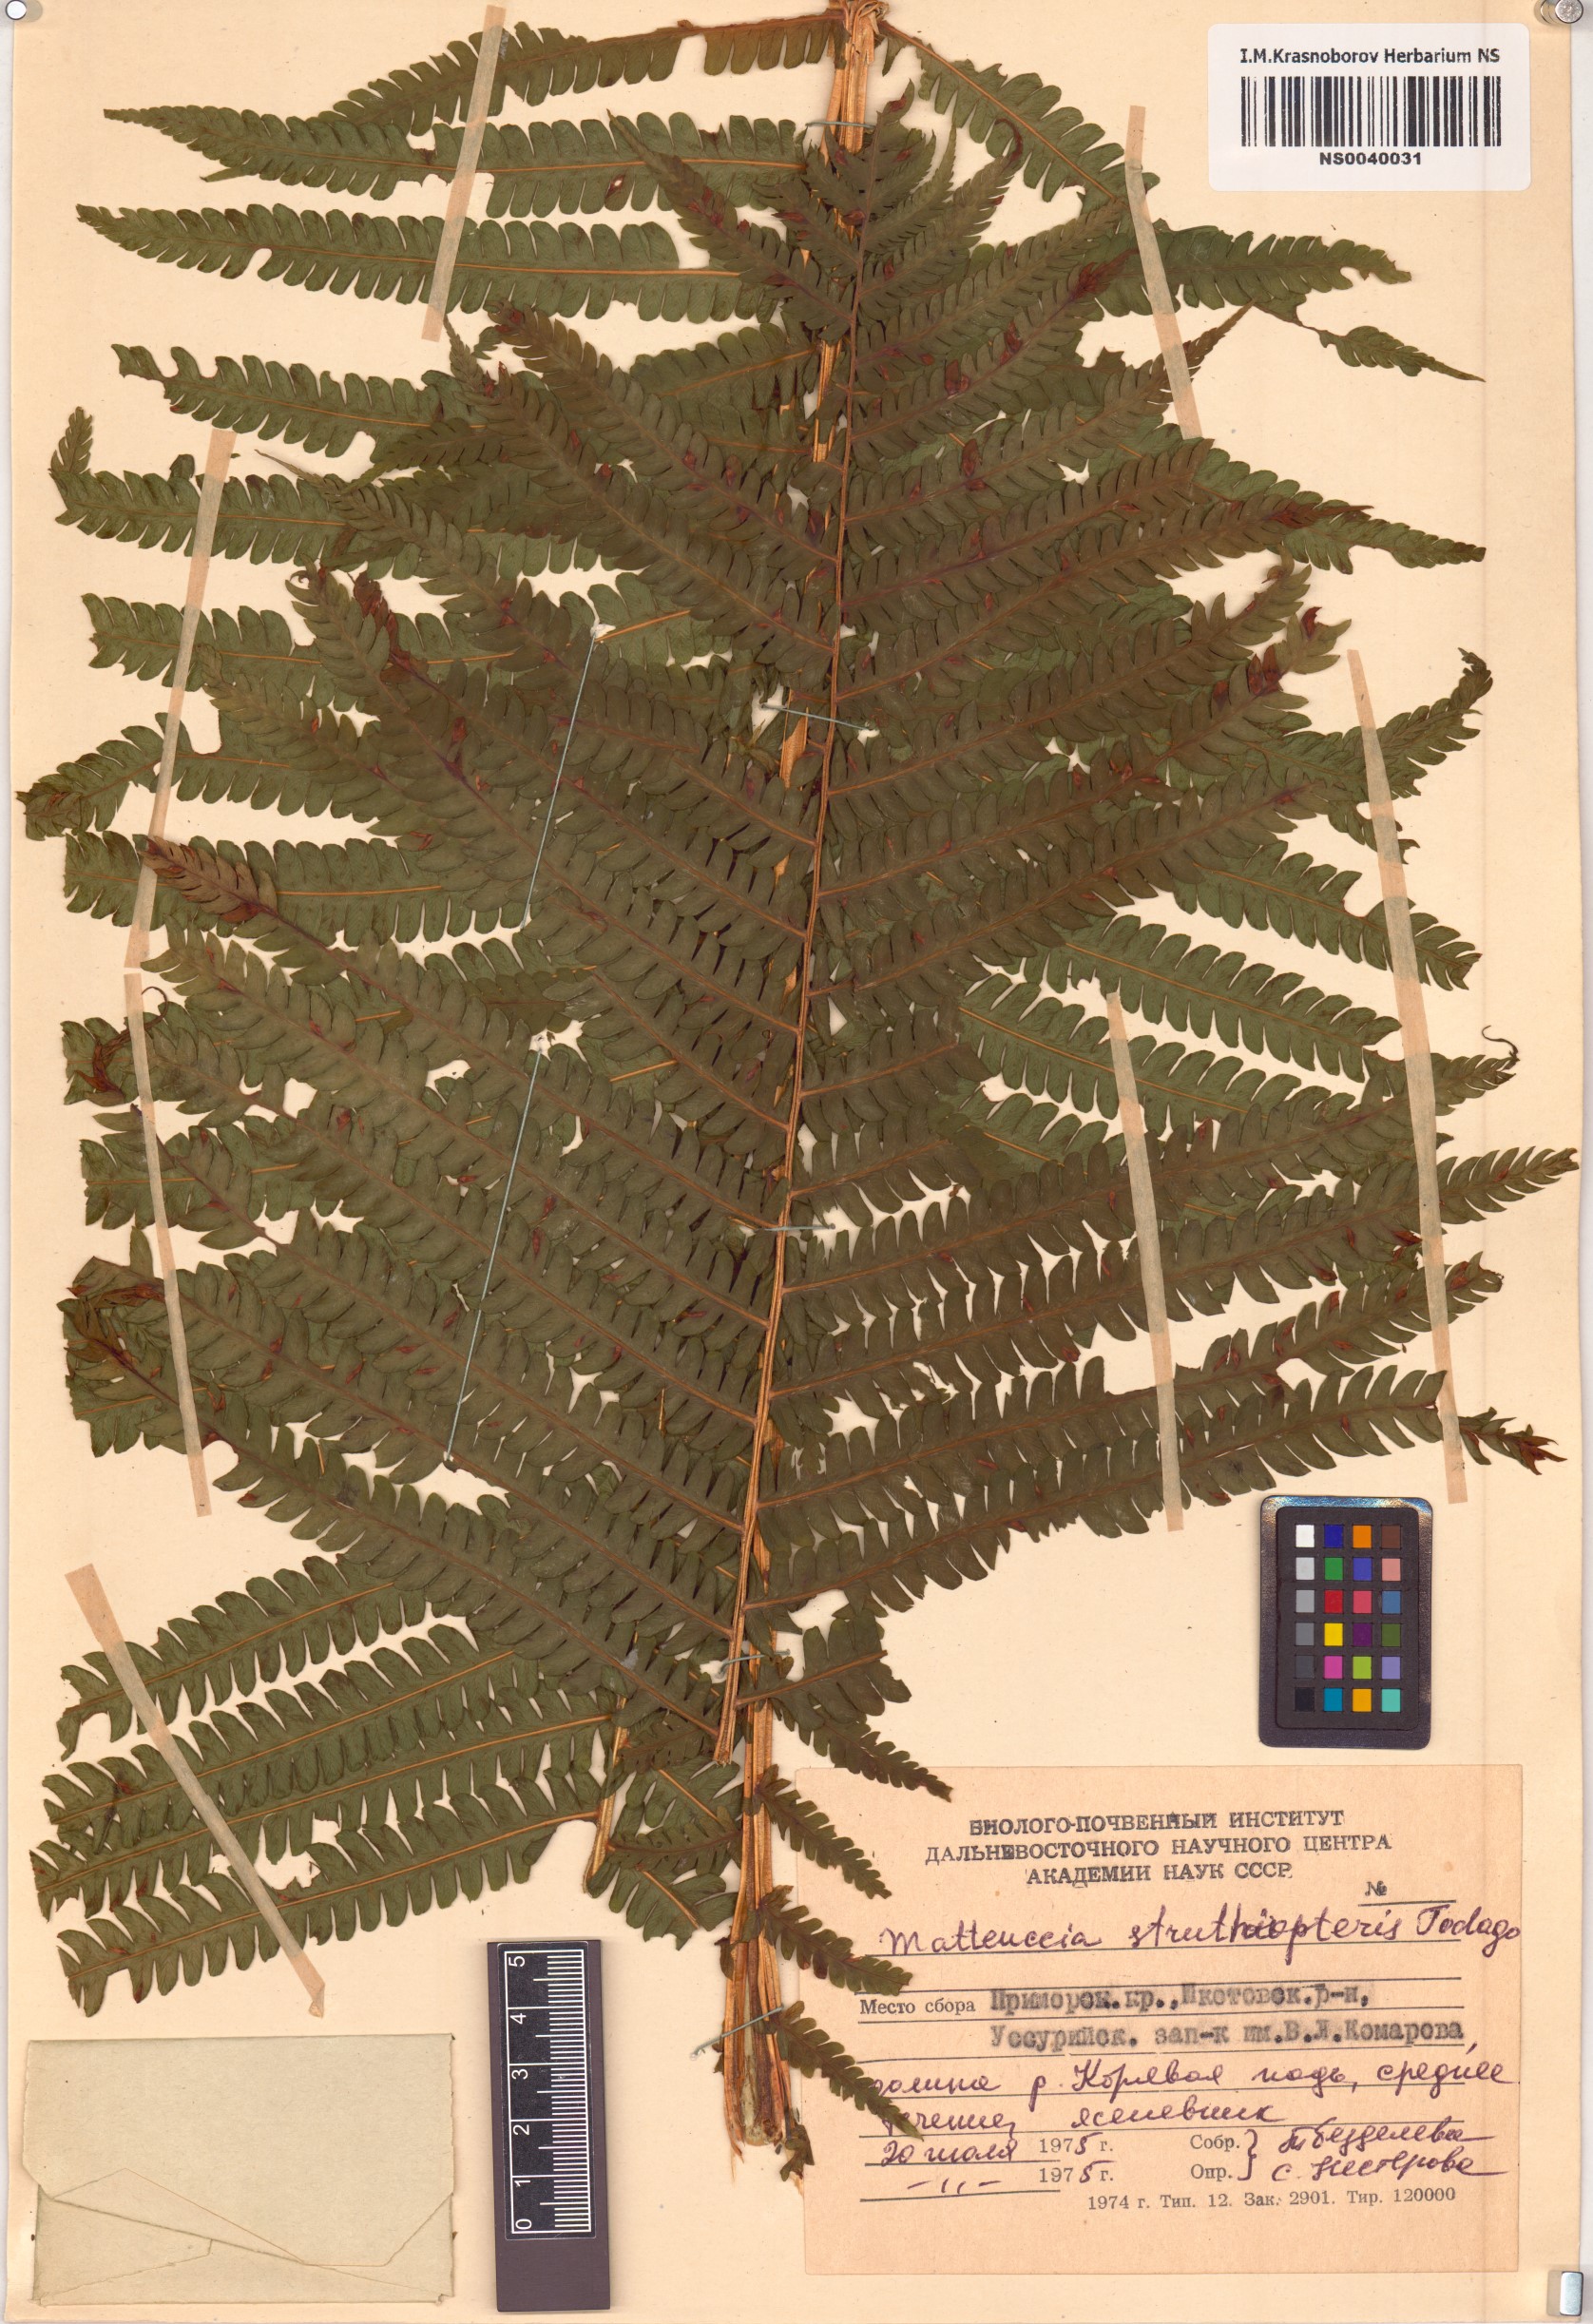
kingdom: Plantae
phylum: Tracheophyta
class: Polypodiopsida
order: Polypodiales
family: Onocleaceae
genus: Matteuccia
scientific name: Matteuccia struthiopteris
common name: Ostrich fern
